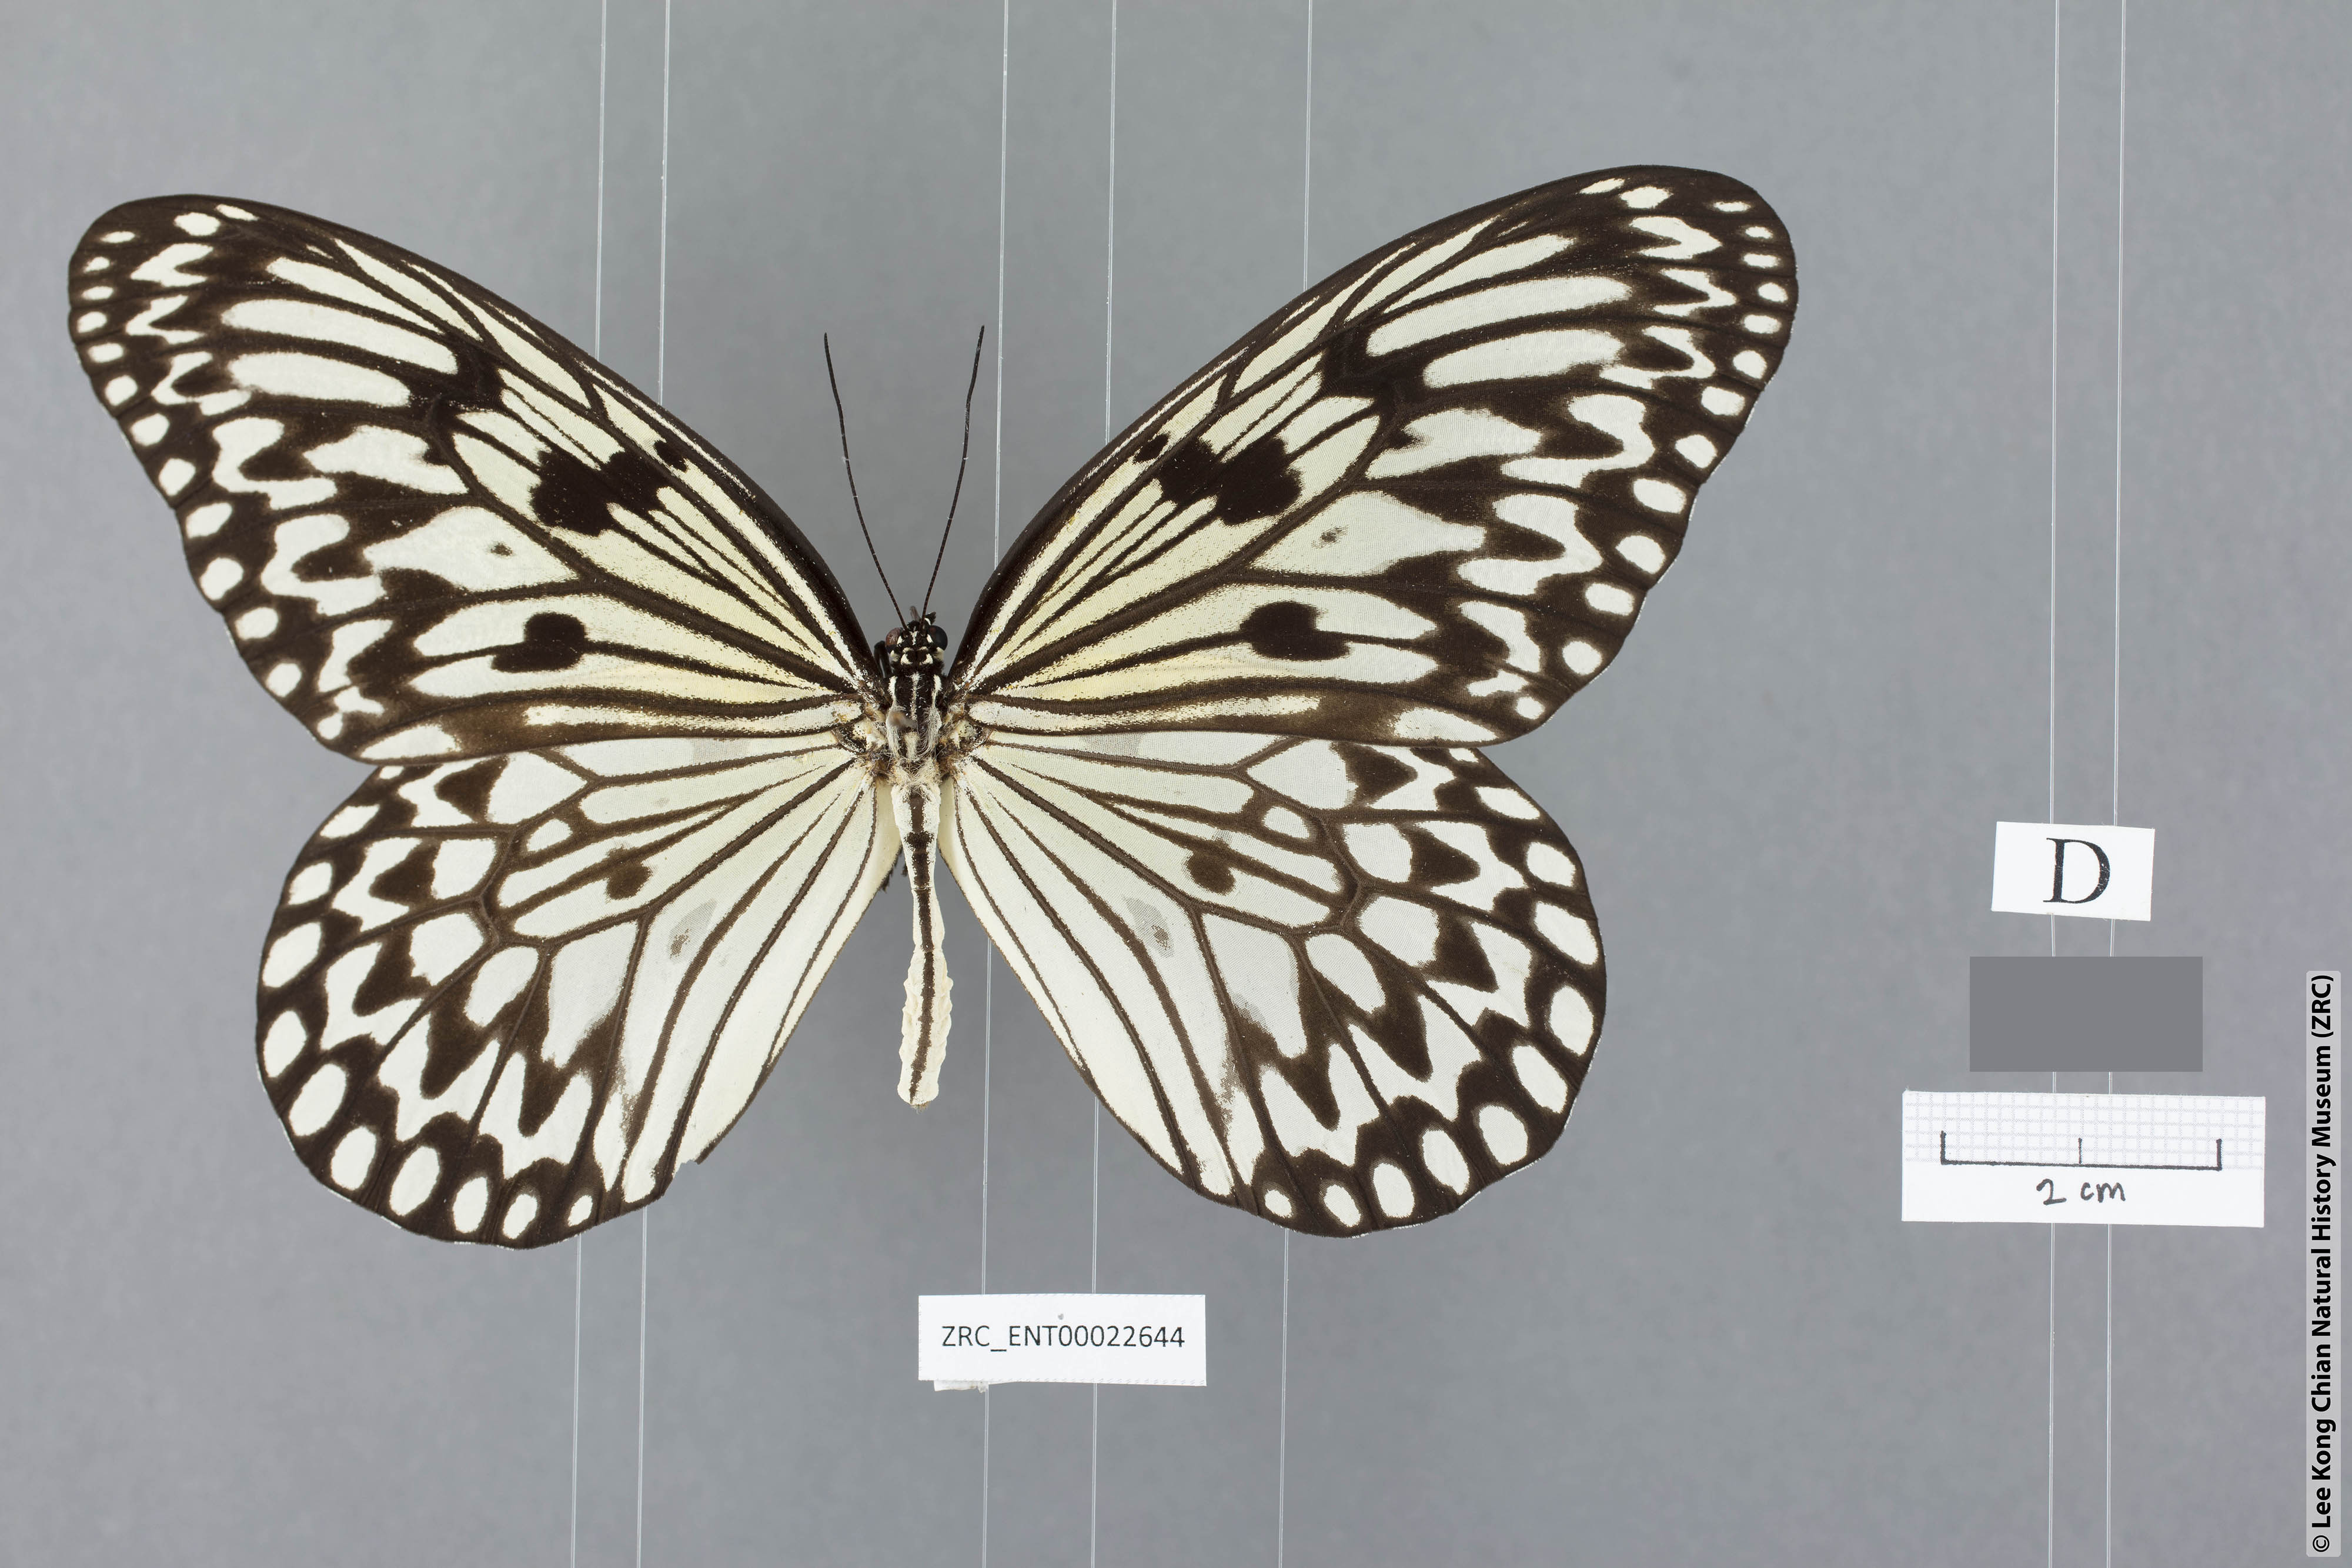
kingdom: Animalia
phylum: Arthropoda
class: Insecta
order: Lepidoptera
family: Nymphalidae
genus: Idea
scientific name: Idea leuconoe
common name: Rice paper butterfly
